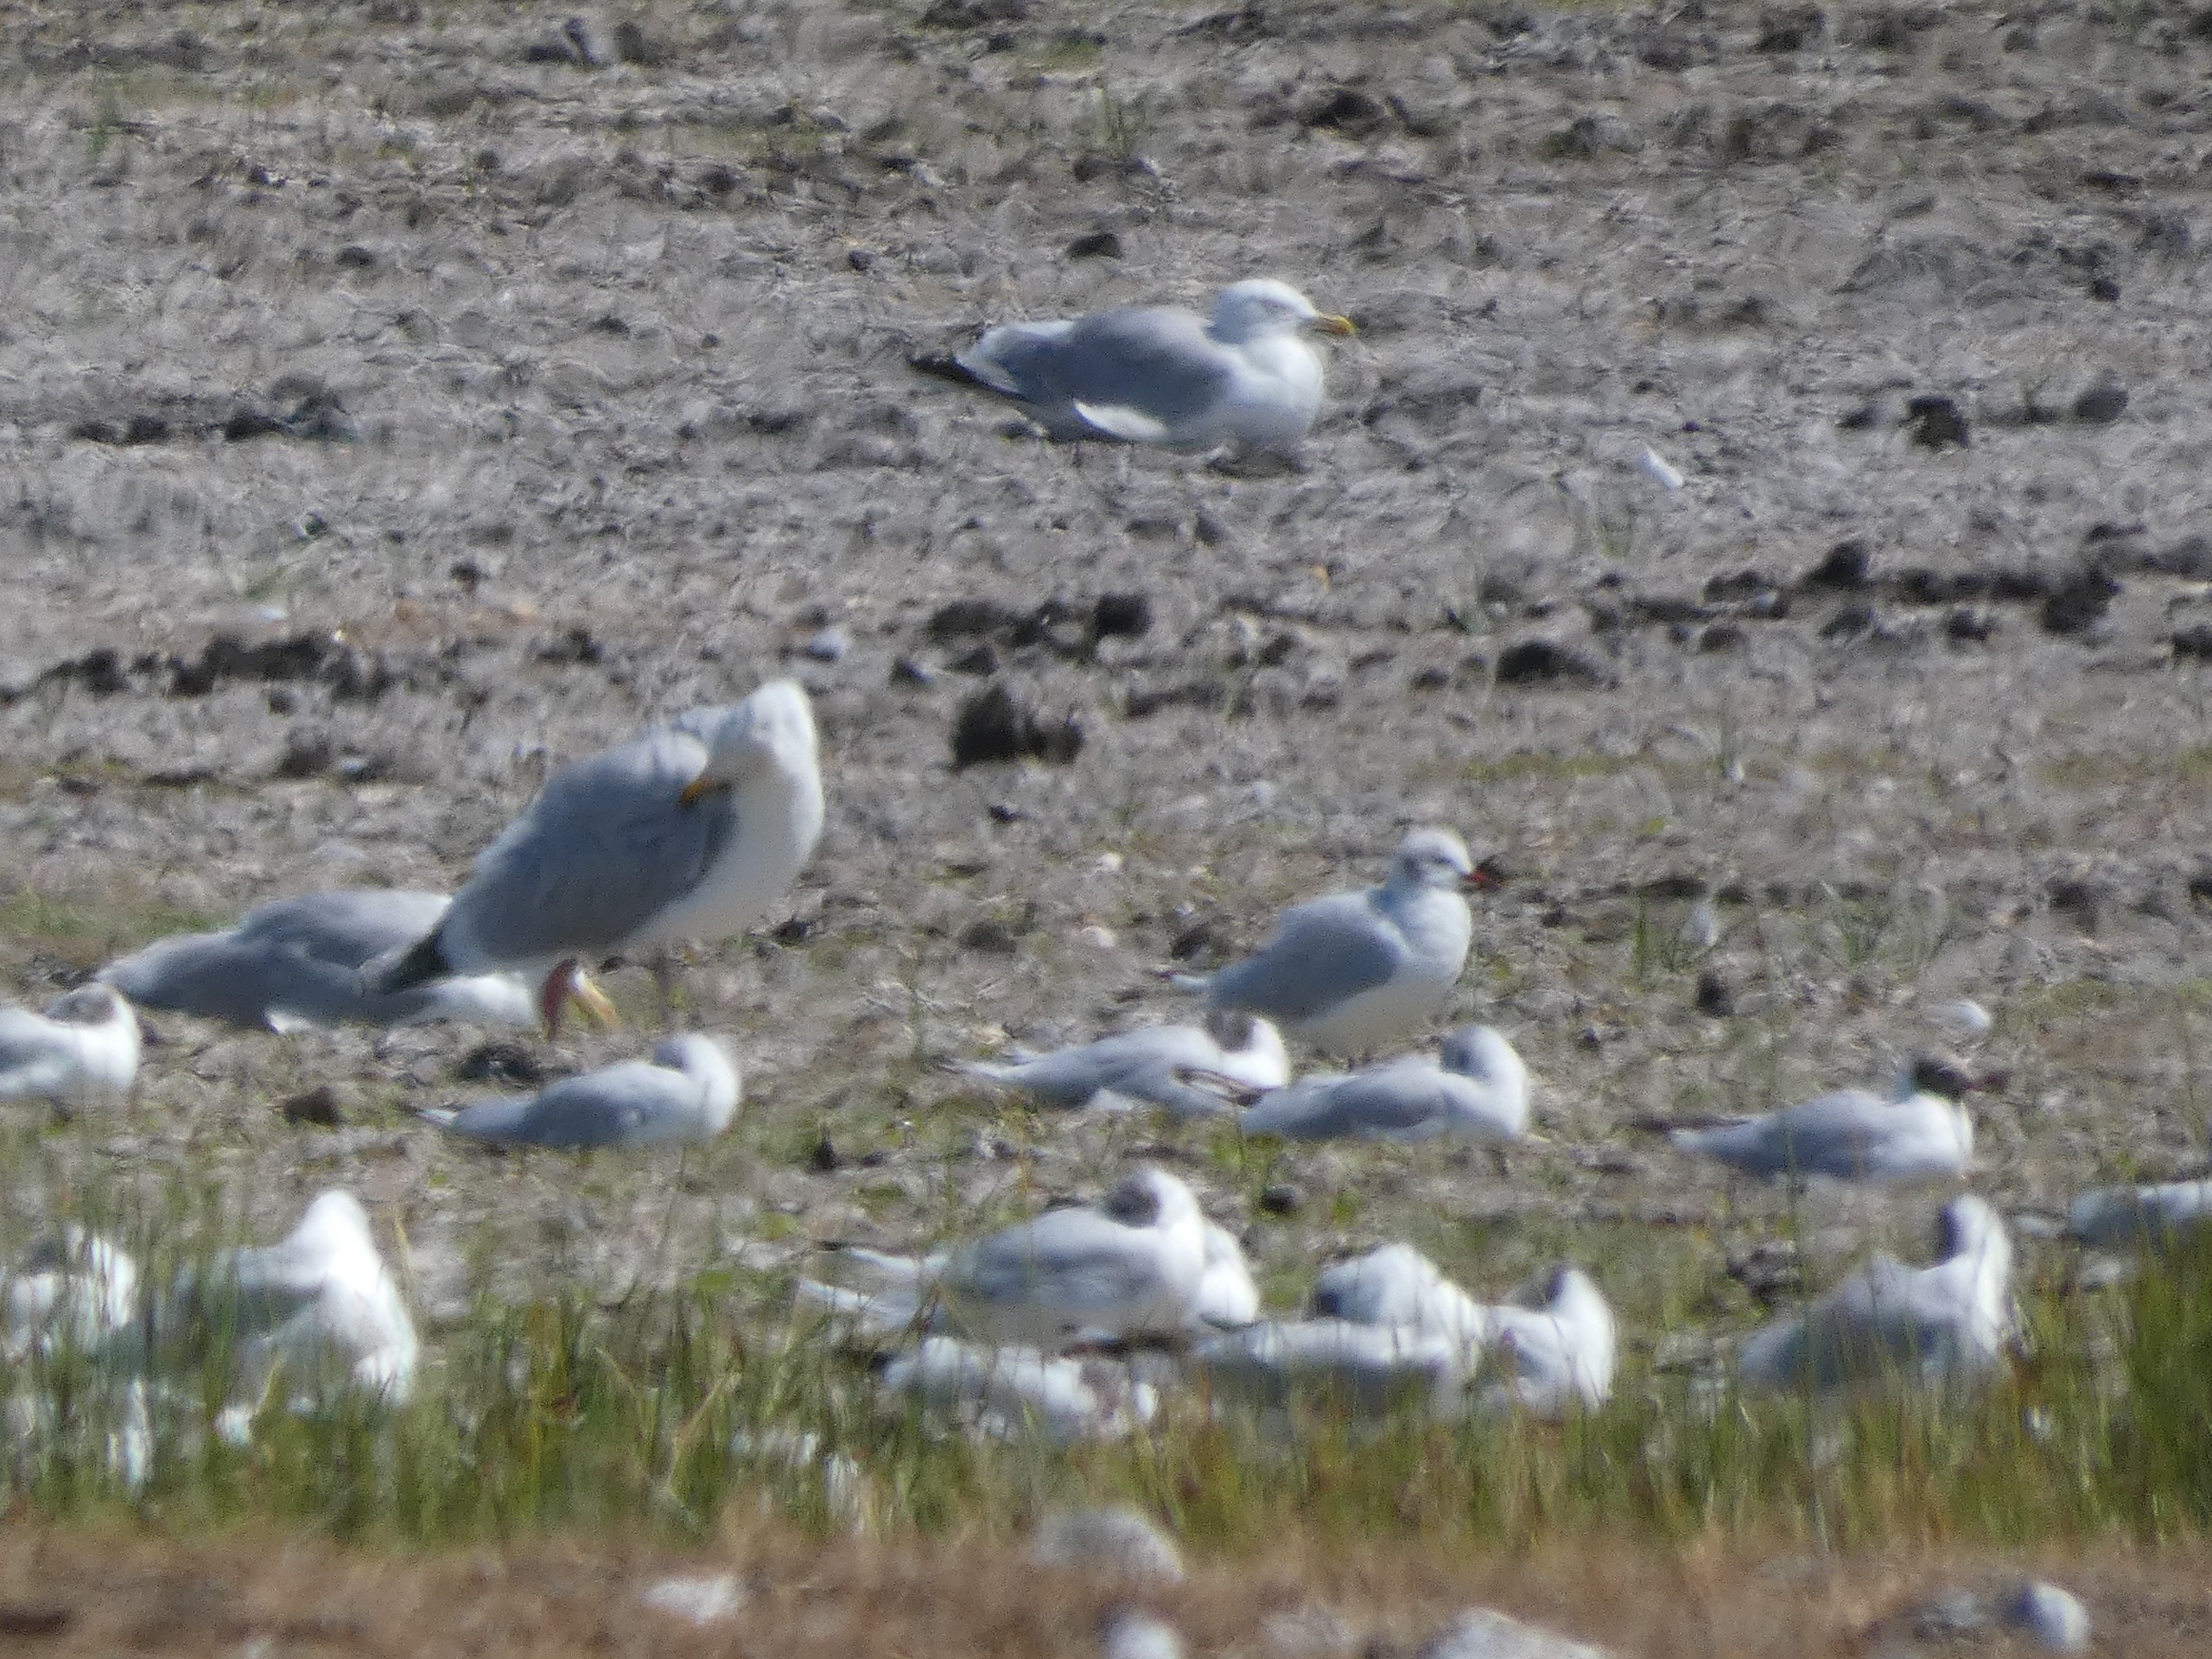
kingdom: Animalia
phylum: Chordata
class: Aves
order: Charadriiformes
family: Laridae
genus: Larus
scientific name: Larus argentatus
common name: Sølvmåge
